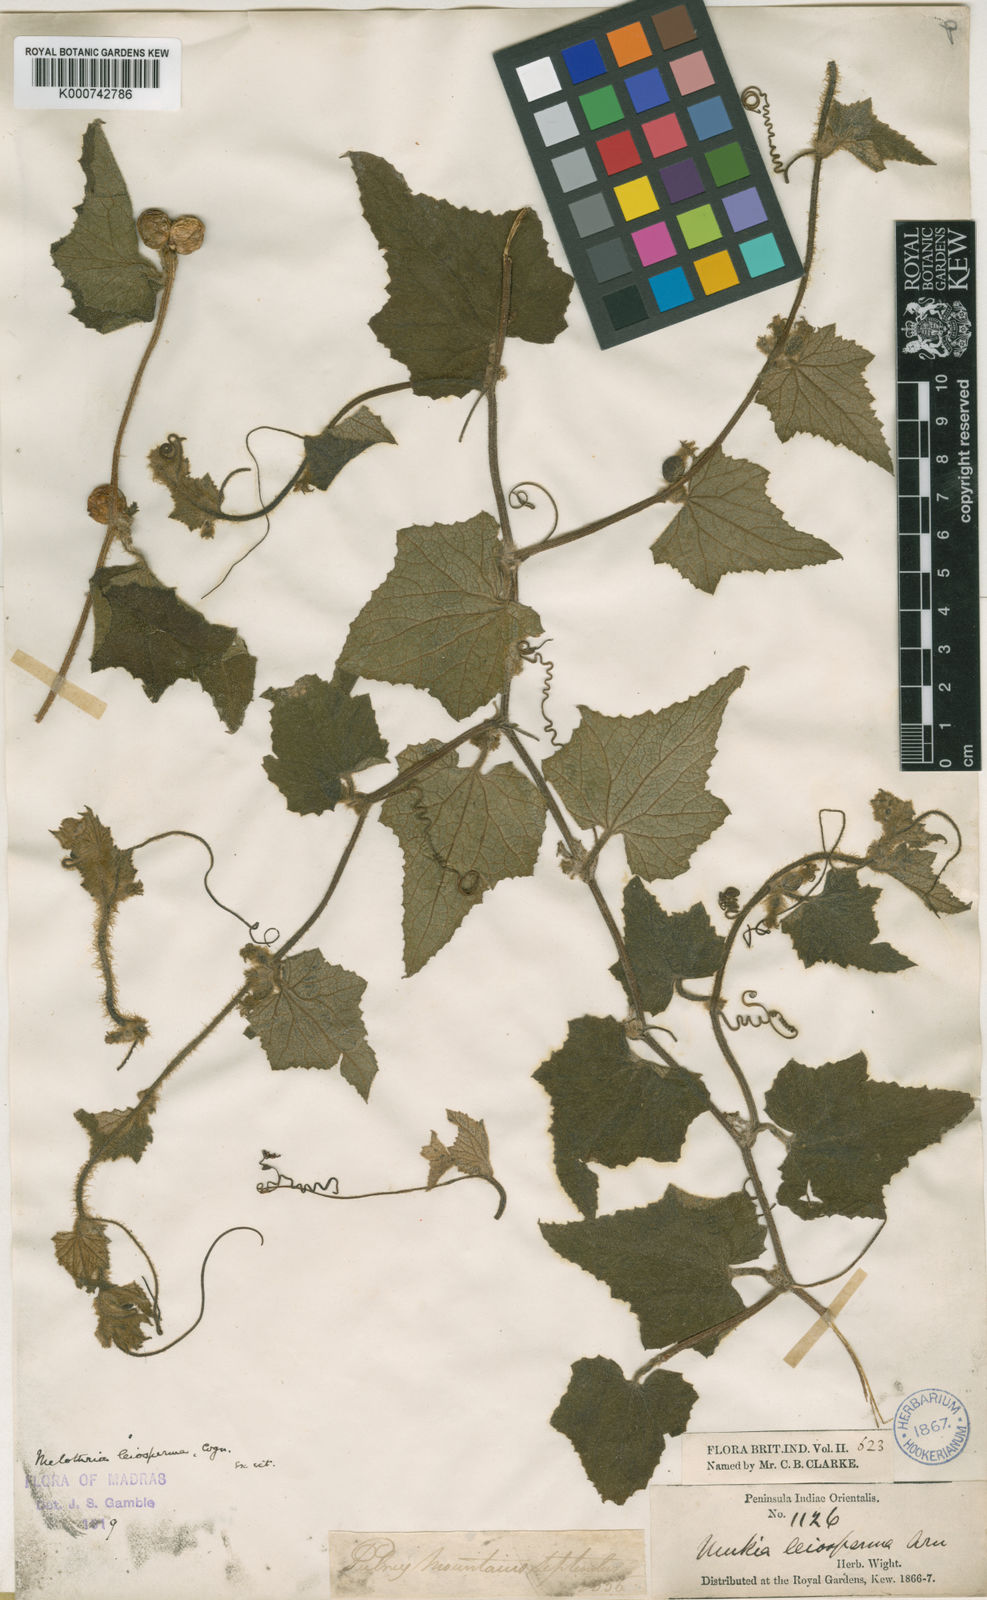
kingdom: Plantae
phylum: Tracheophyta
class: Magnoliopsida
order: Cucurbitales
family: Cucurbitaceae
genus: Cucumis
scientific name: Cucumis leiospermus
